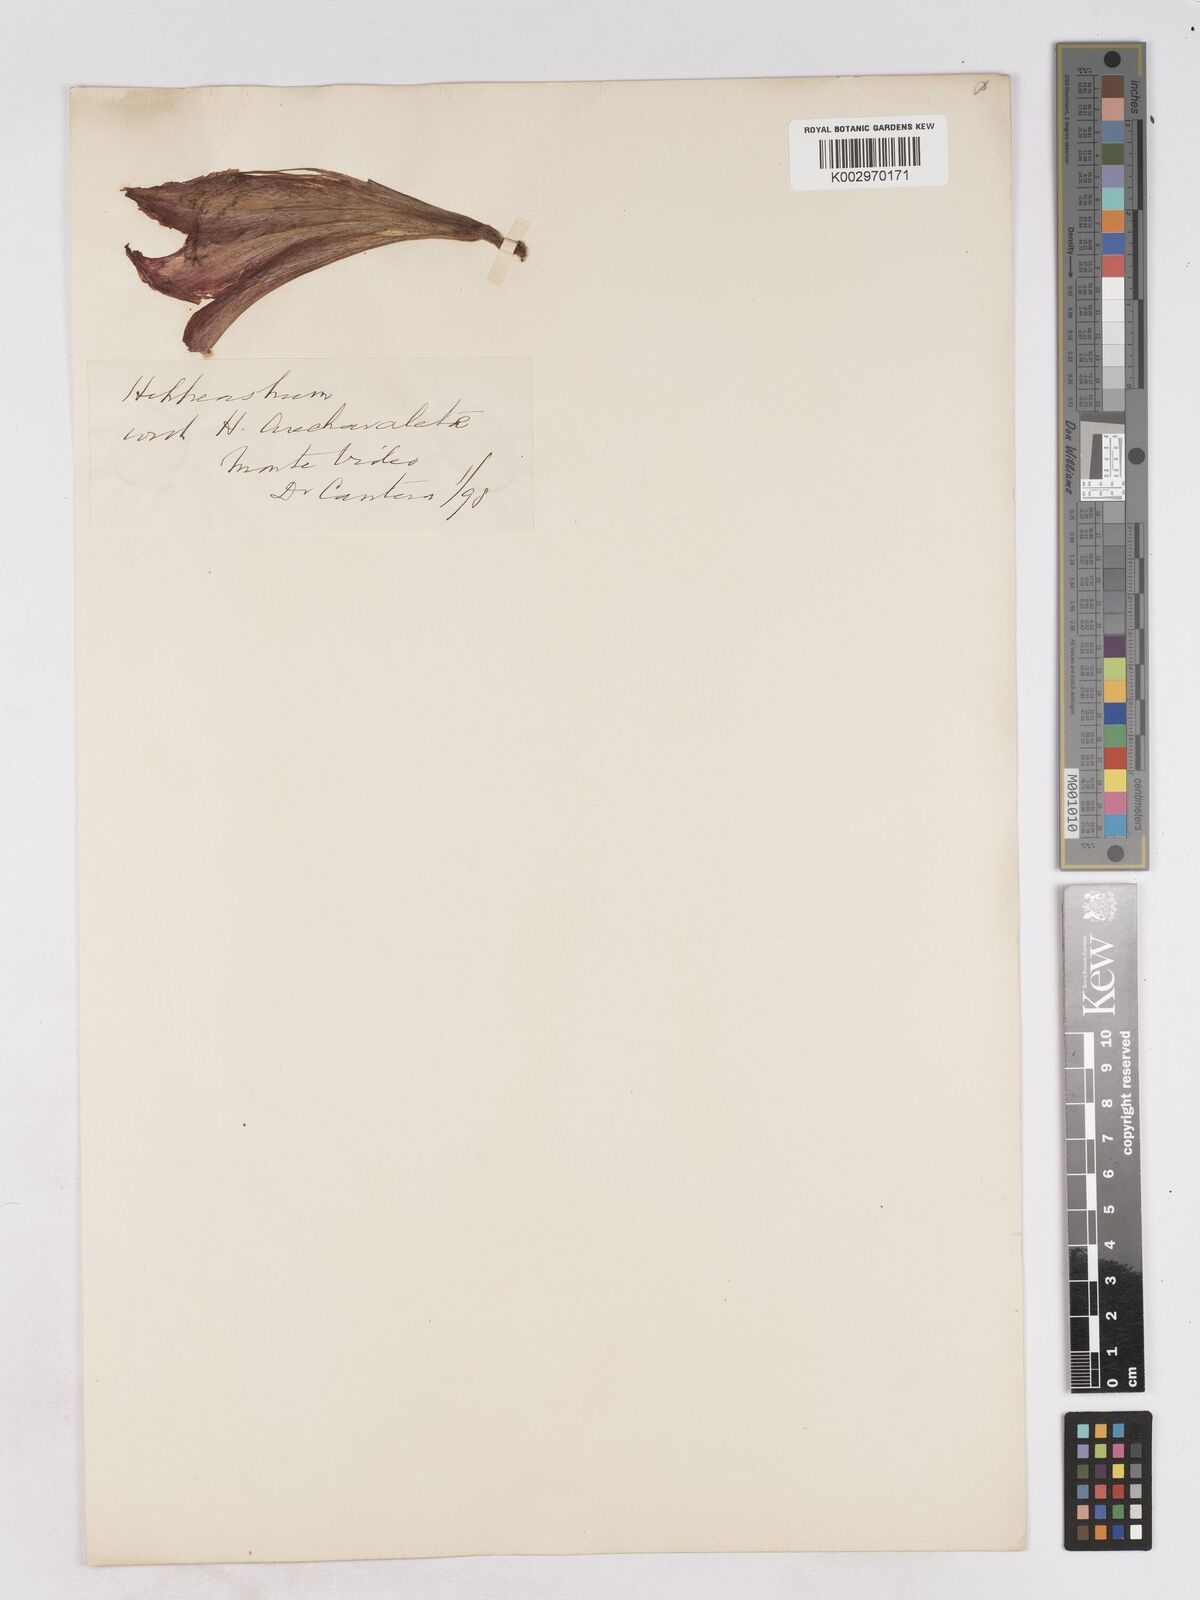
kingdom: Plantae
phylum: Tracheophyta
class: Liliopsida
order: Asparagales
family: Amaryllidaceae
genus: Hippeastrum
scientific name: Hippeastrum harrisonii
